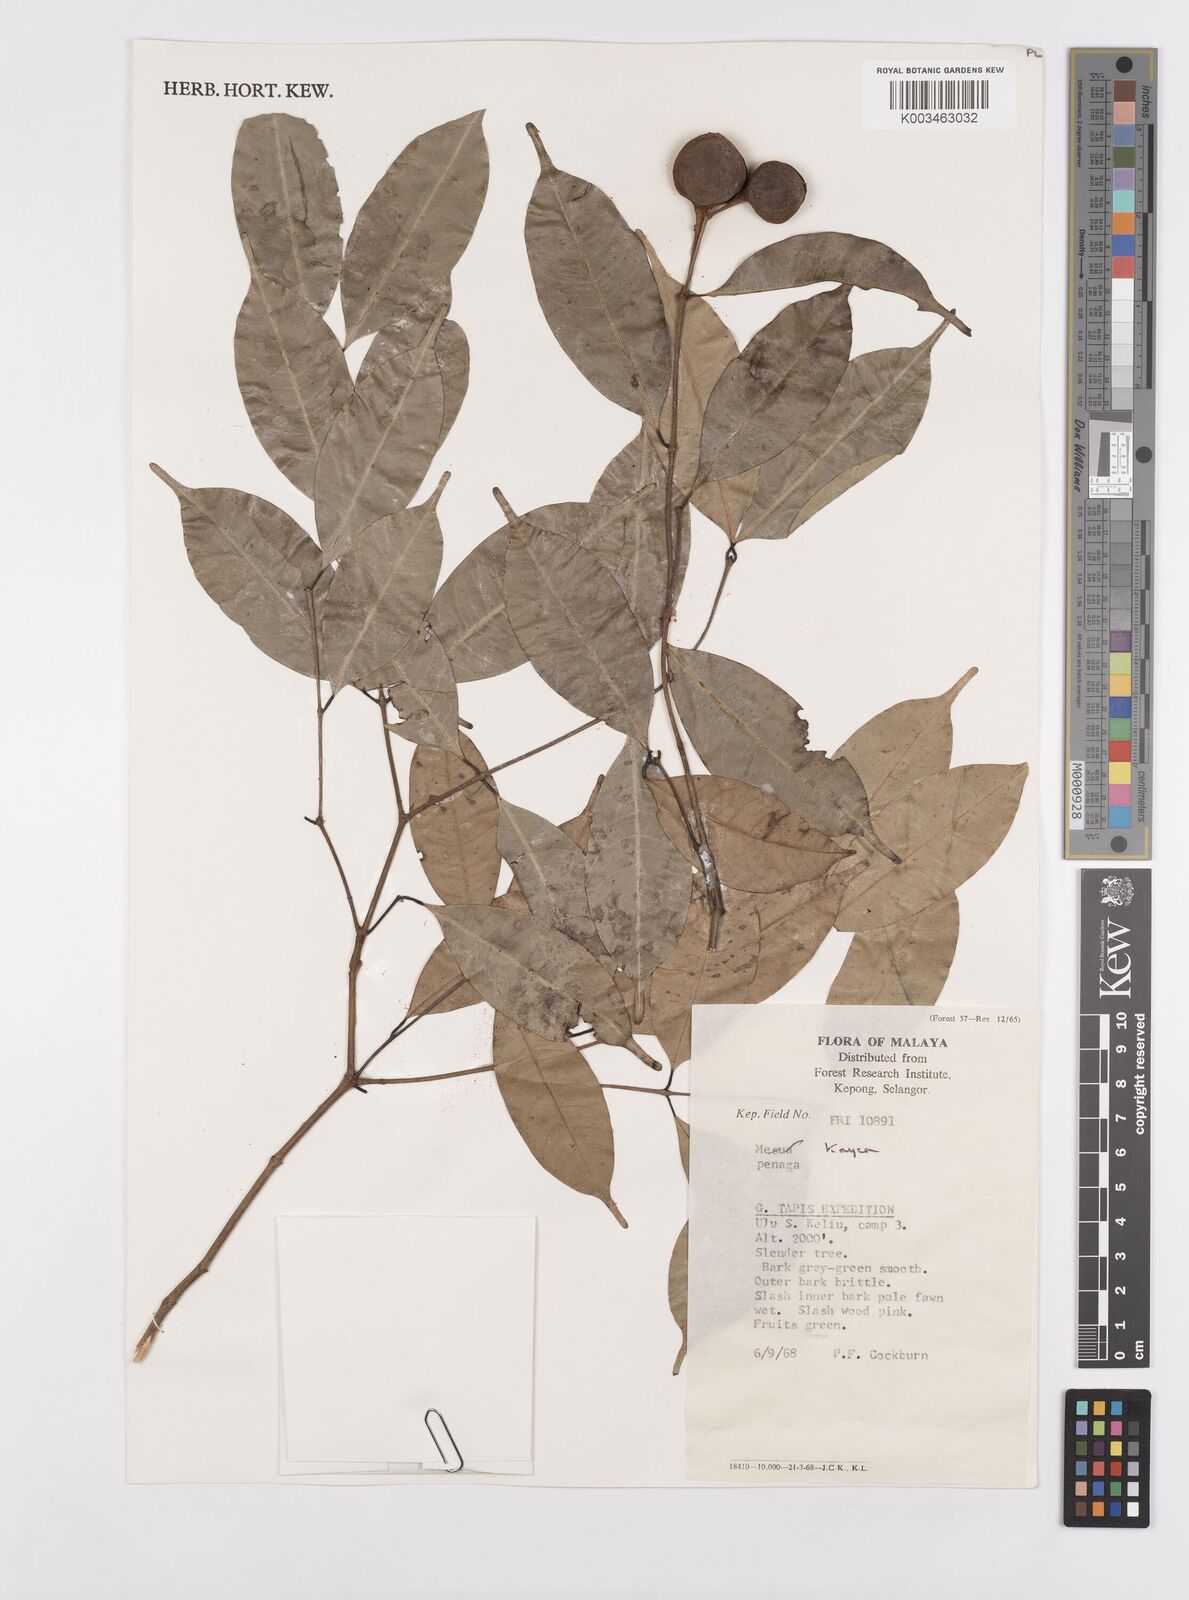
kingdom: Plantae
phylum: Tracheophyta
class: Magnoliopsida
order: Malpighiales
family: Calophyllaceae
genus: Kayea
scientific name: Kayea
